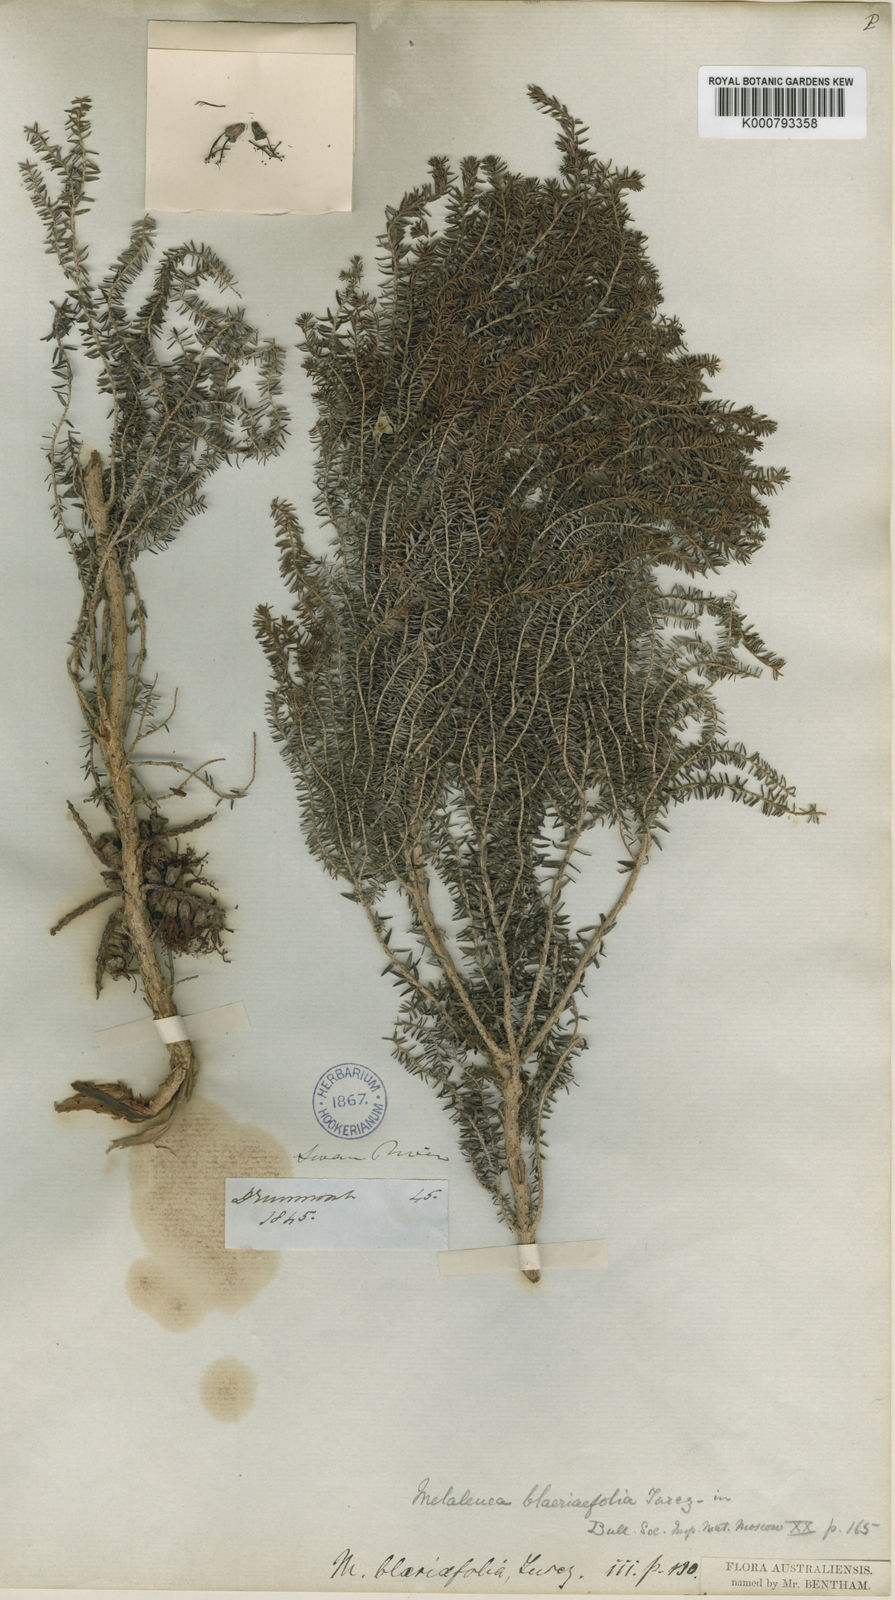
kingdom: Plantae
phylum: Tracheophyta
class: Magnoliopsida
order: Myrtales
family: Myrtaceae
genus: Melaleuca
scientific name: Melaleuca blaeriifolia
